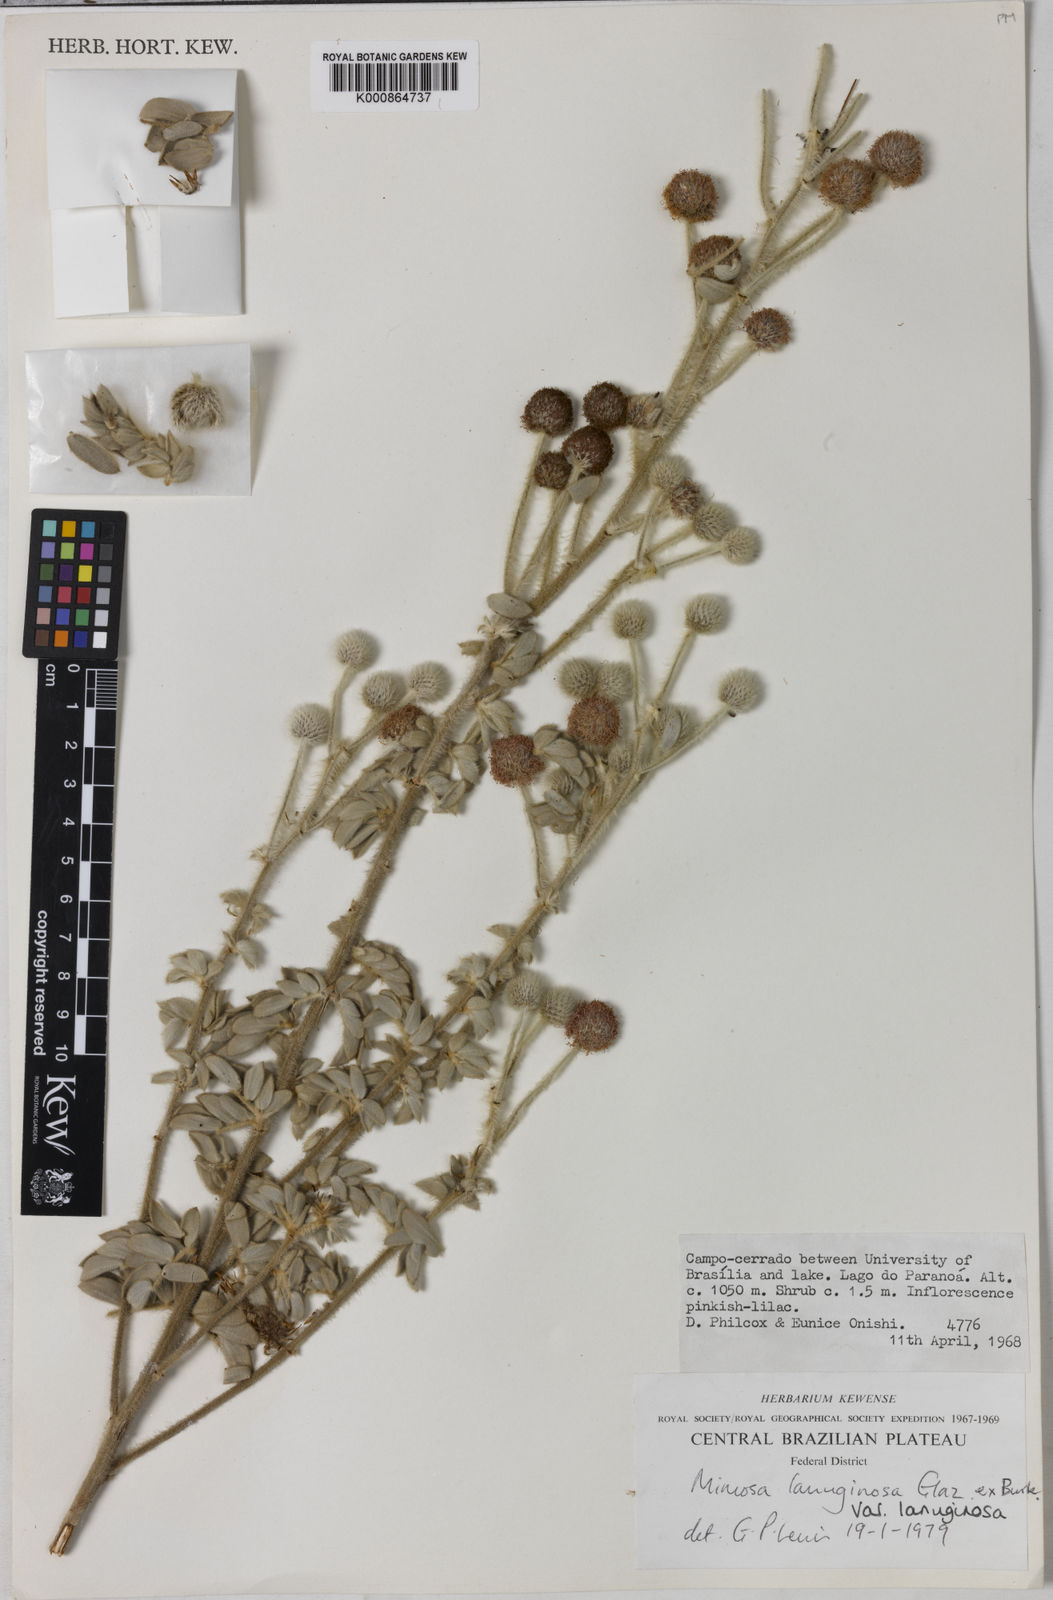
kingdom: Plantae
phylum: Tracheophyta
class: Magnoliopsida
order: Fabales
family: Fabaceae
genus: Mimosa
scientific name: Mimosa lanuginosa
